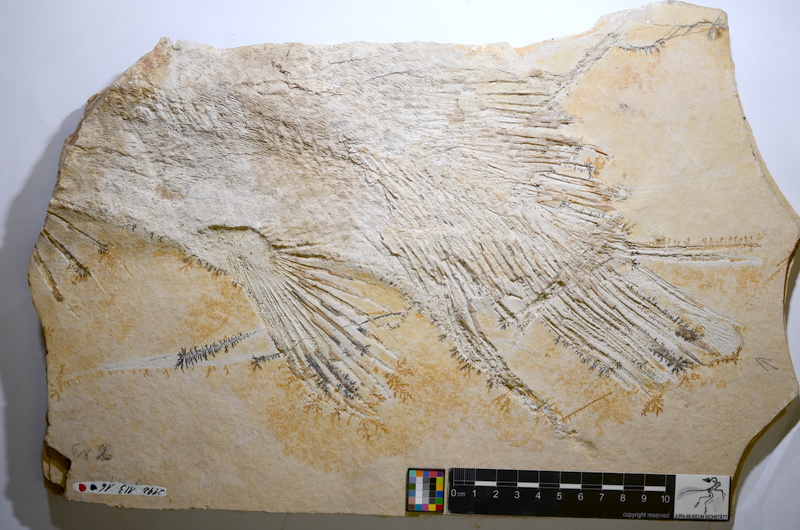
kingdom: Animalia
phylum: Chordata
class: Coelacanthi
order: Coelacanthiformes
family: Latimeroidea
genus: Macropoma
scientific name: Macropoma willemoesii
